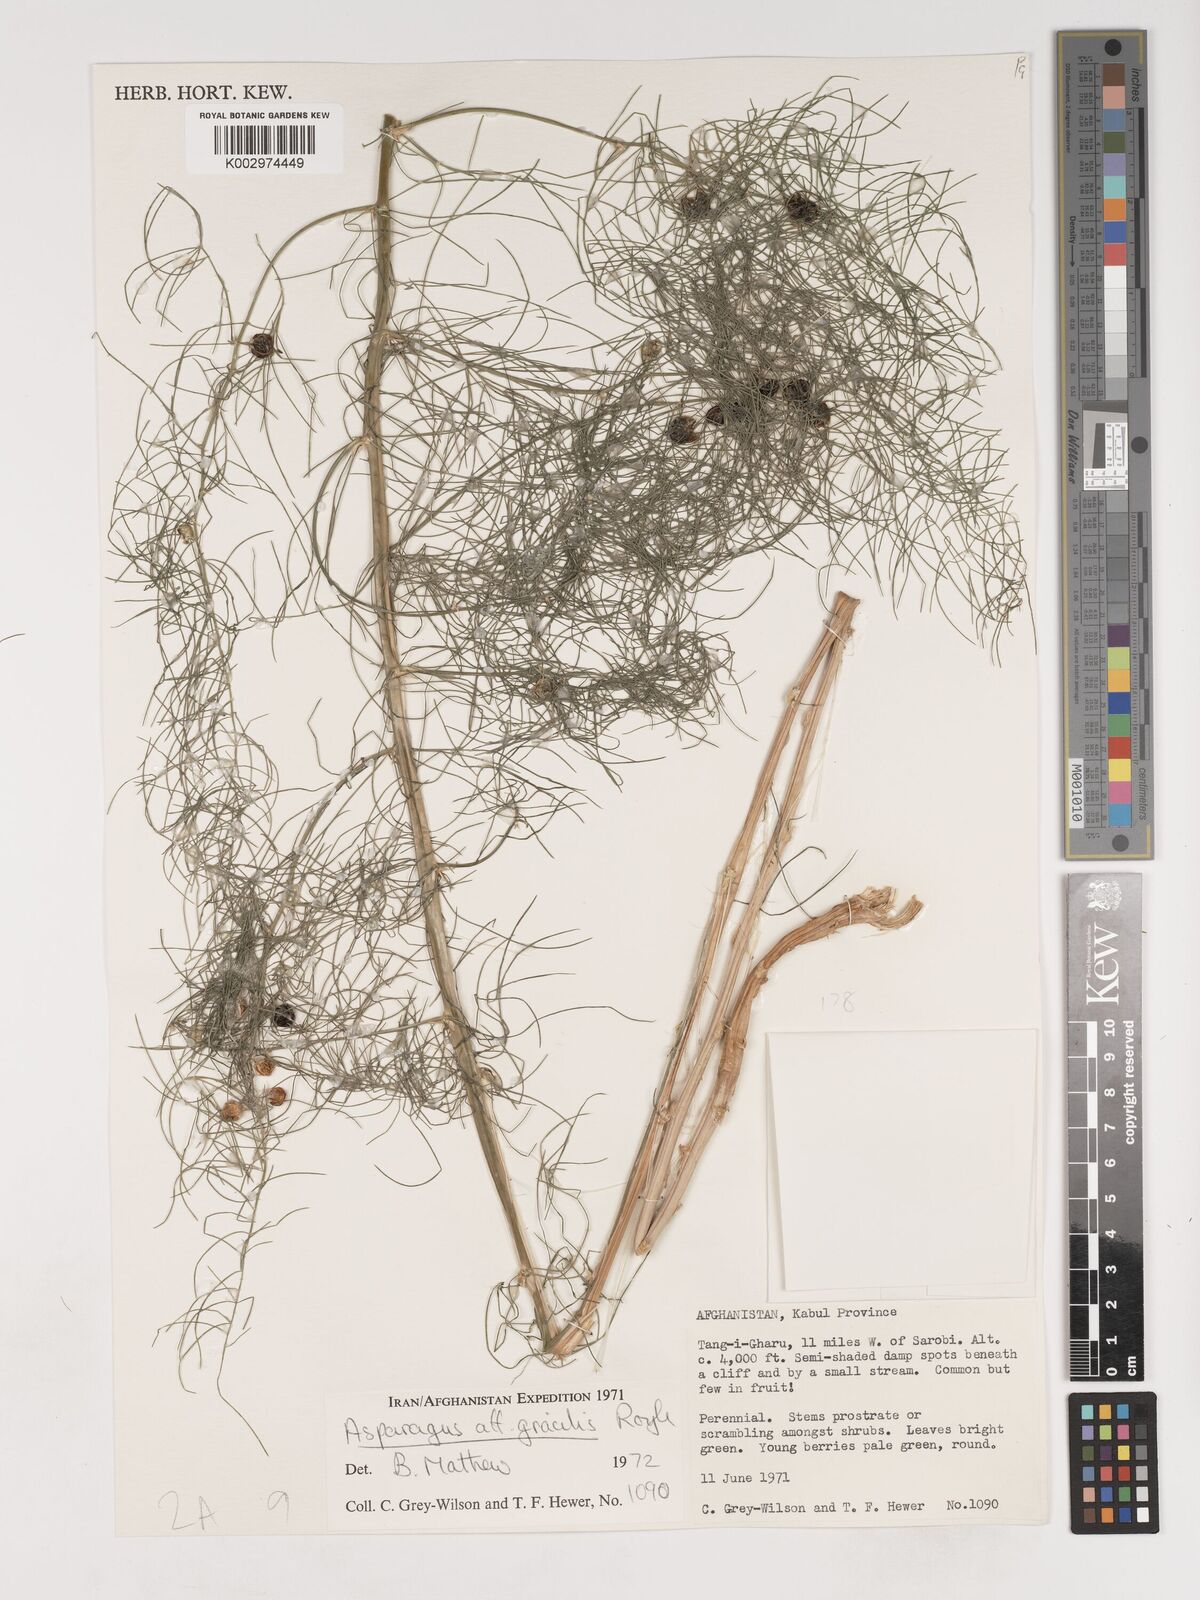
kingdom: Plantae
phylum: Tracheophyta
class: Liliopsida
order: Asparagales
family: Asparagaceae
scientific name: Asparagaceae
